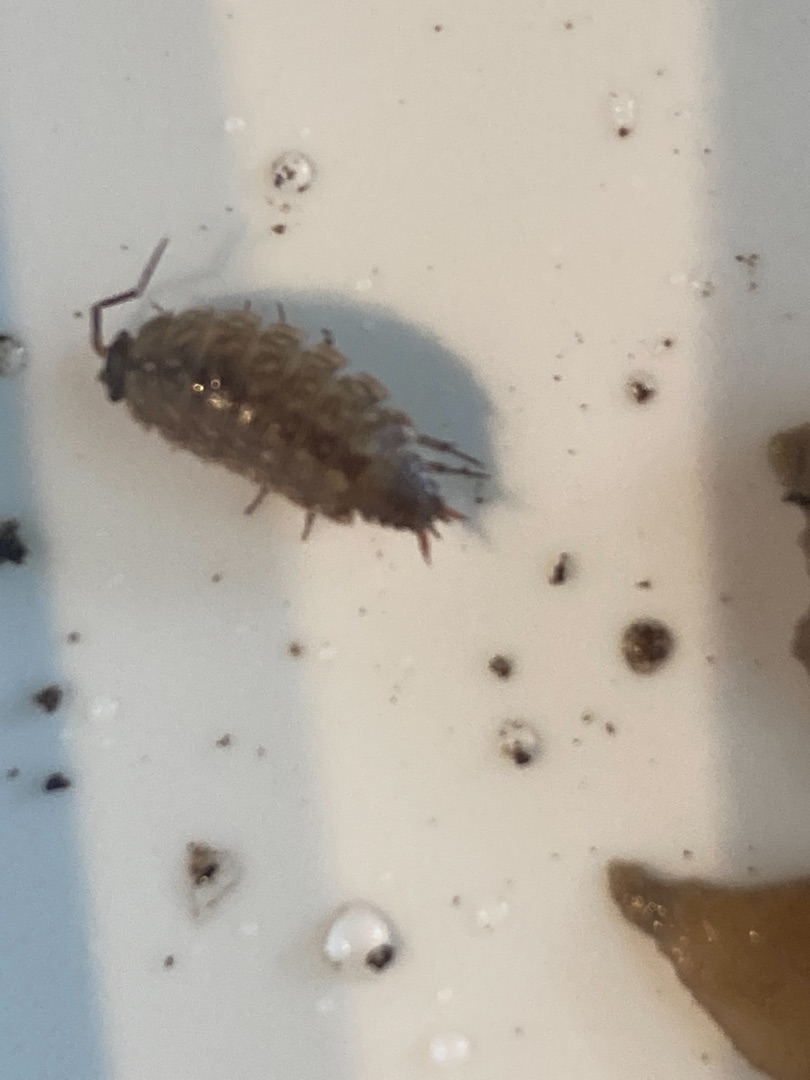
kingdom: Animalia
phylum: Arthropoda
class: Malacostraca
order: Isopoda
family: Philosciidae
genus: Philoscia
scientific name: Philoscia muscorum
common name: Langbenet bænkebider
